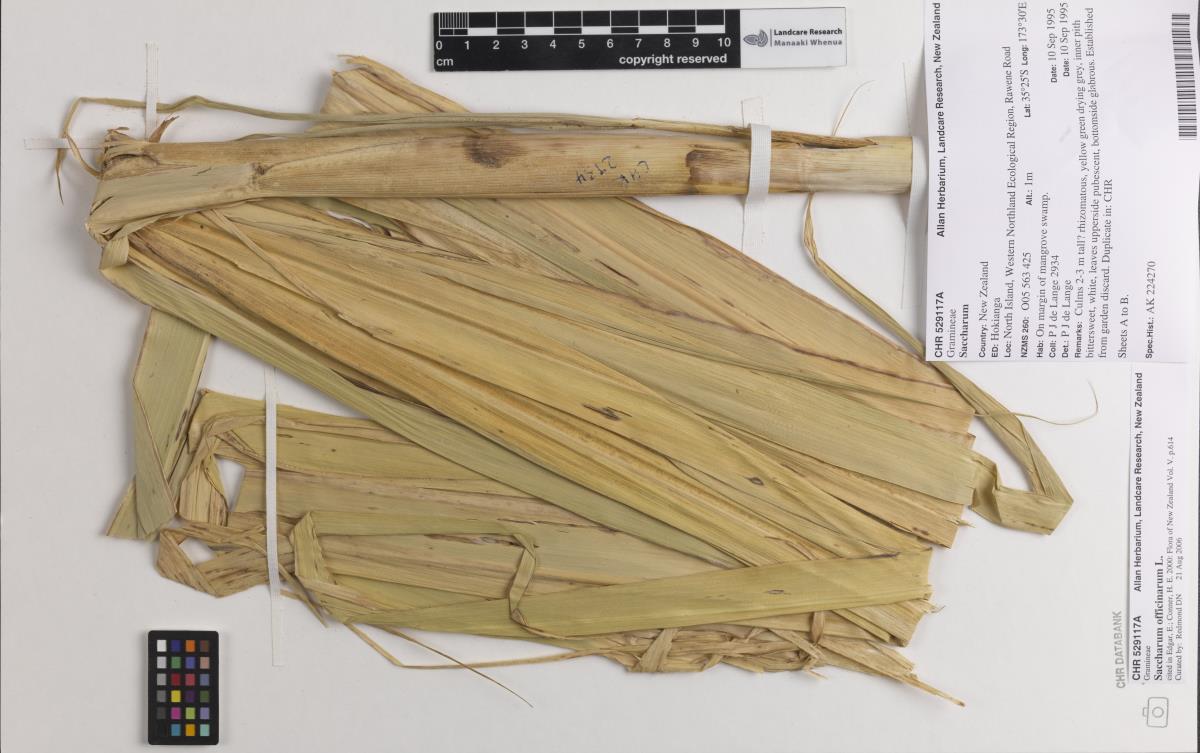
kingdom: Plantae
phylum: Tracheophyta
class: Liliopsida
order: Poales
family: Poaceae
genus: Saccharum
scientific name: Saccharum officinarum
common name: Sugarcane
